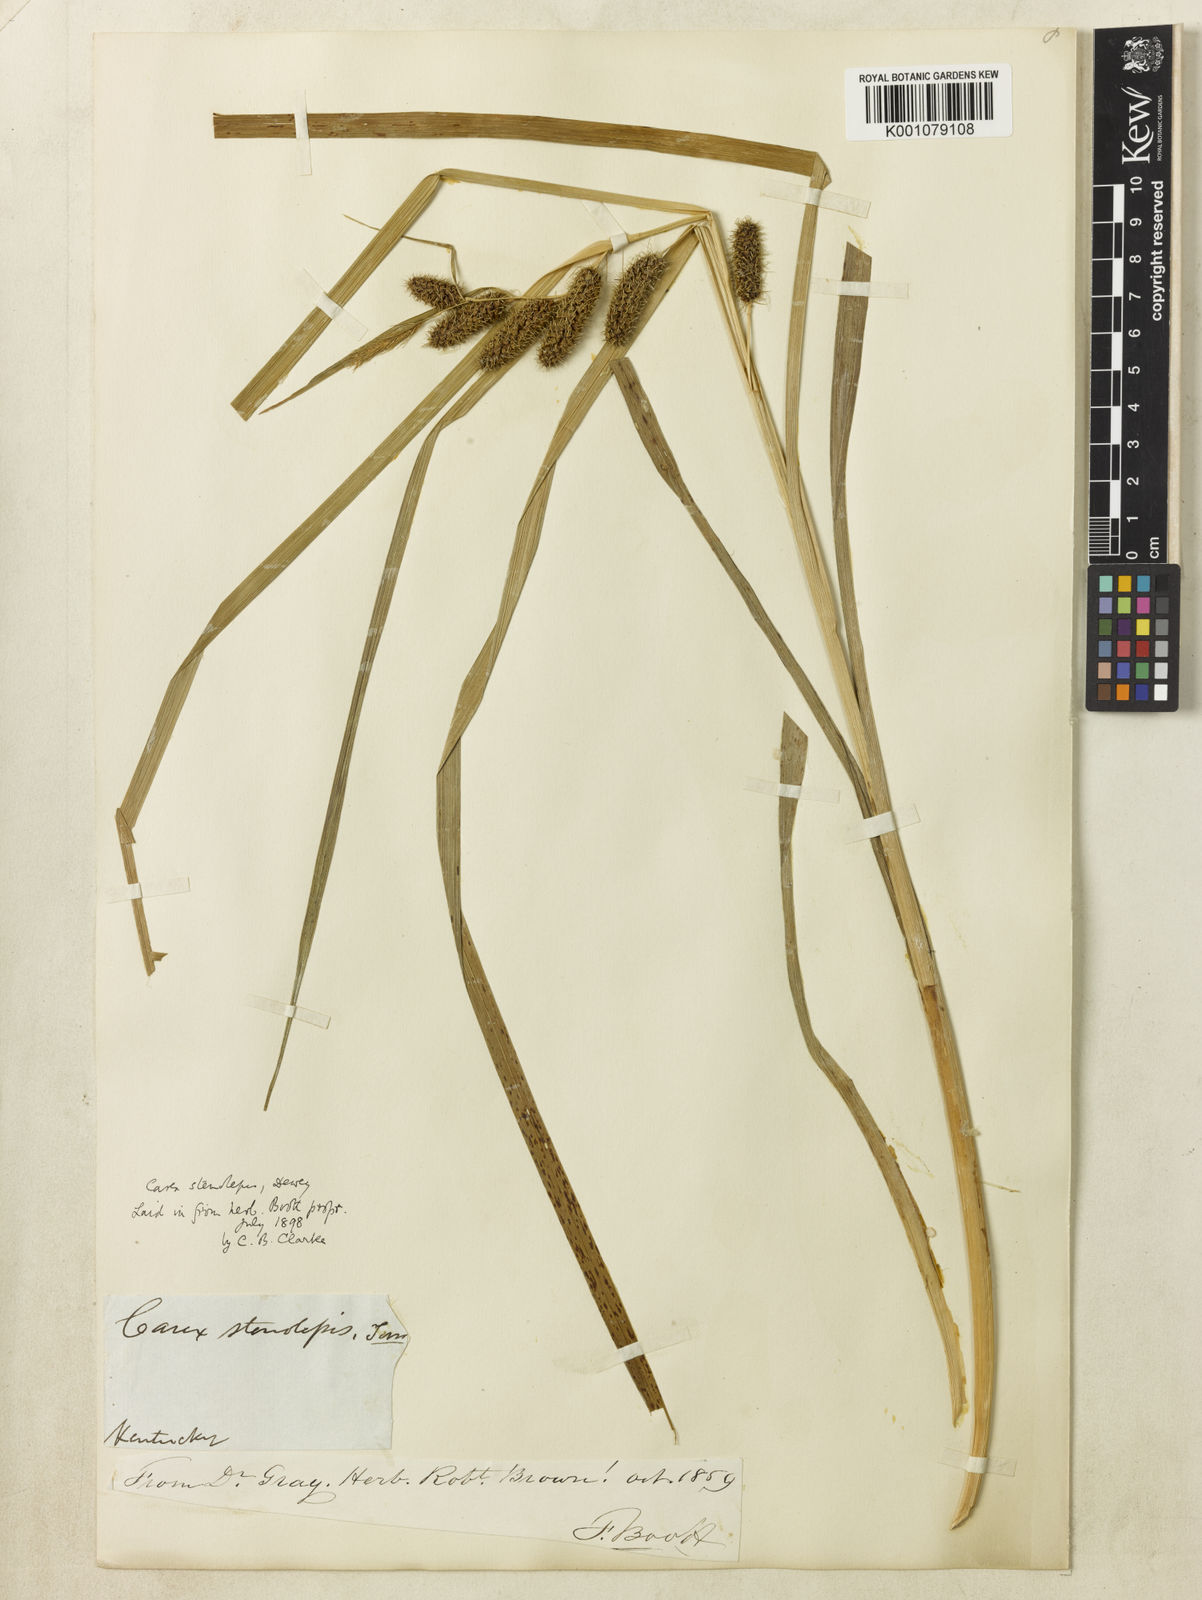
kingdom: Plantae
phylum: Tracheophyta
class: Liliopsida
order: Poales
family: Cyperaceae
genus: Carex
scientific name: Carex frankii
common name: Frank's sedge
